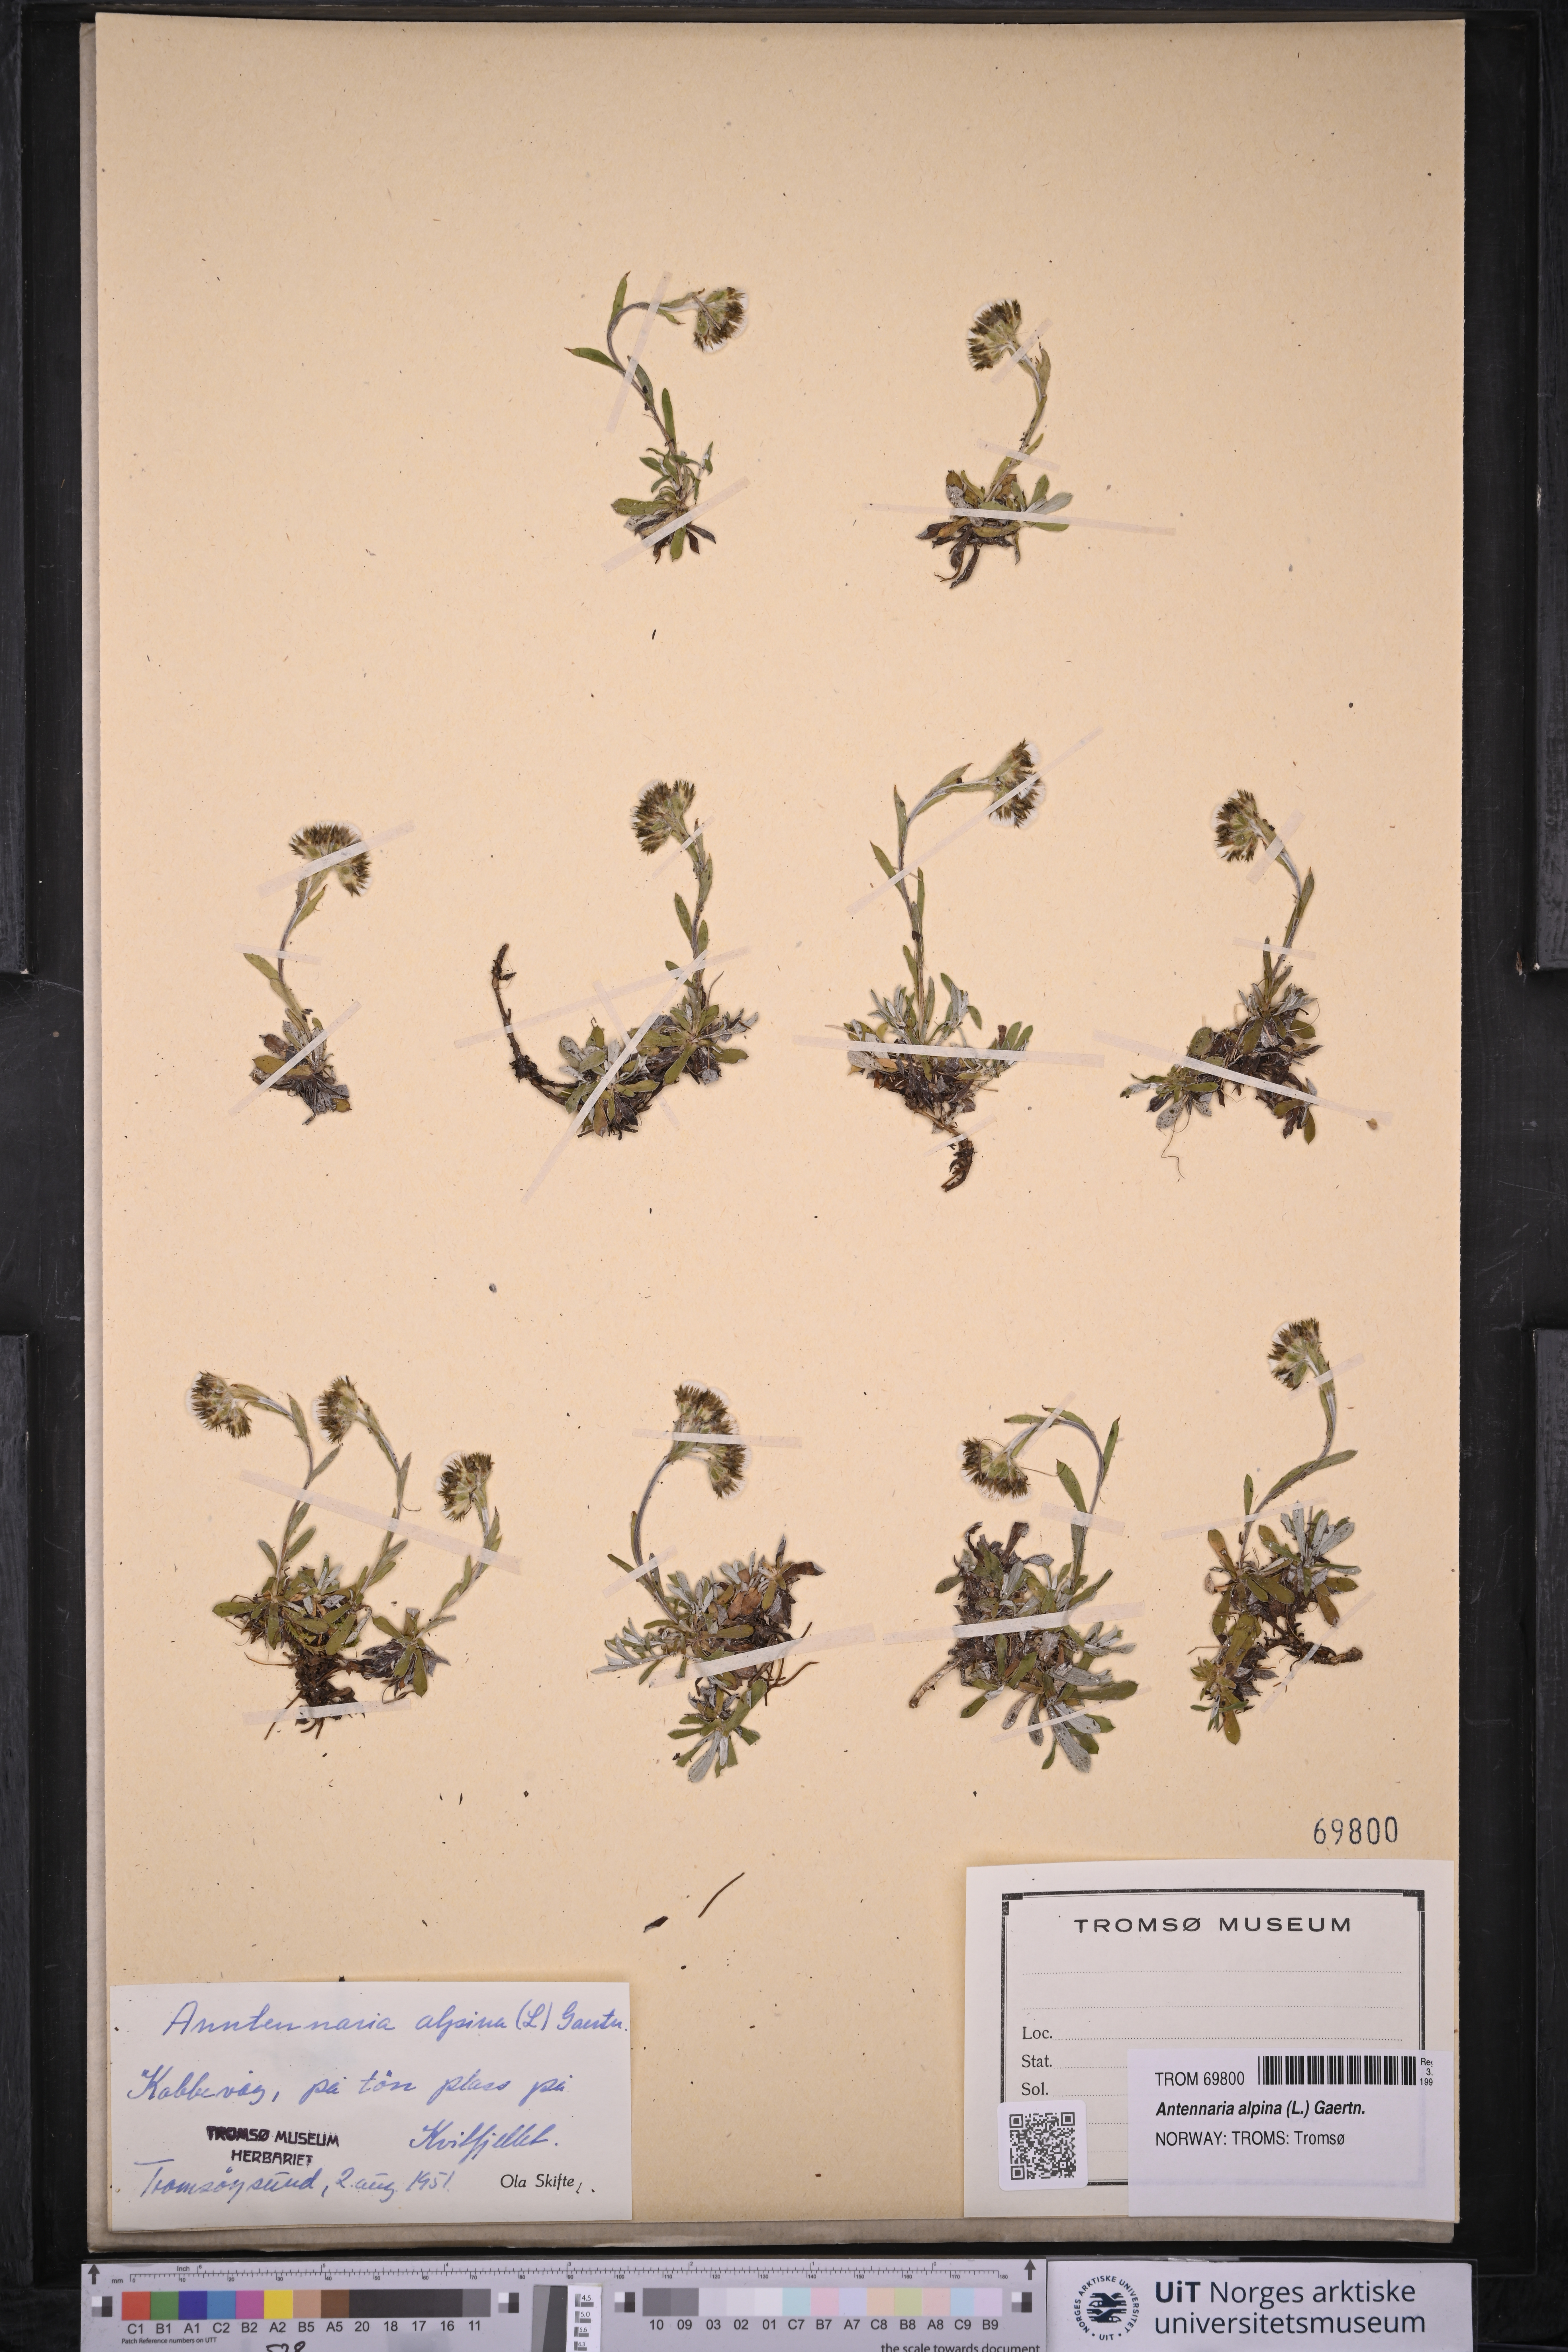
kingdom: Plantae
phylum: Tracheophyta
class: Magnoliopsida
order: Asterales
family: Asteraceae
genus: Antennaria
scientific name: Antennaria alpina
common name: Alpine pussytoes
